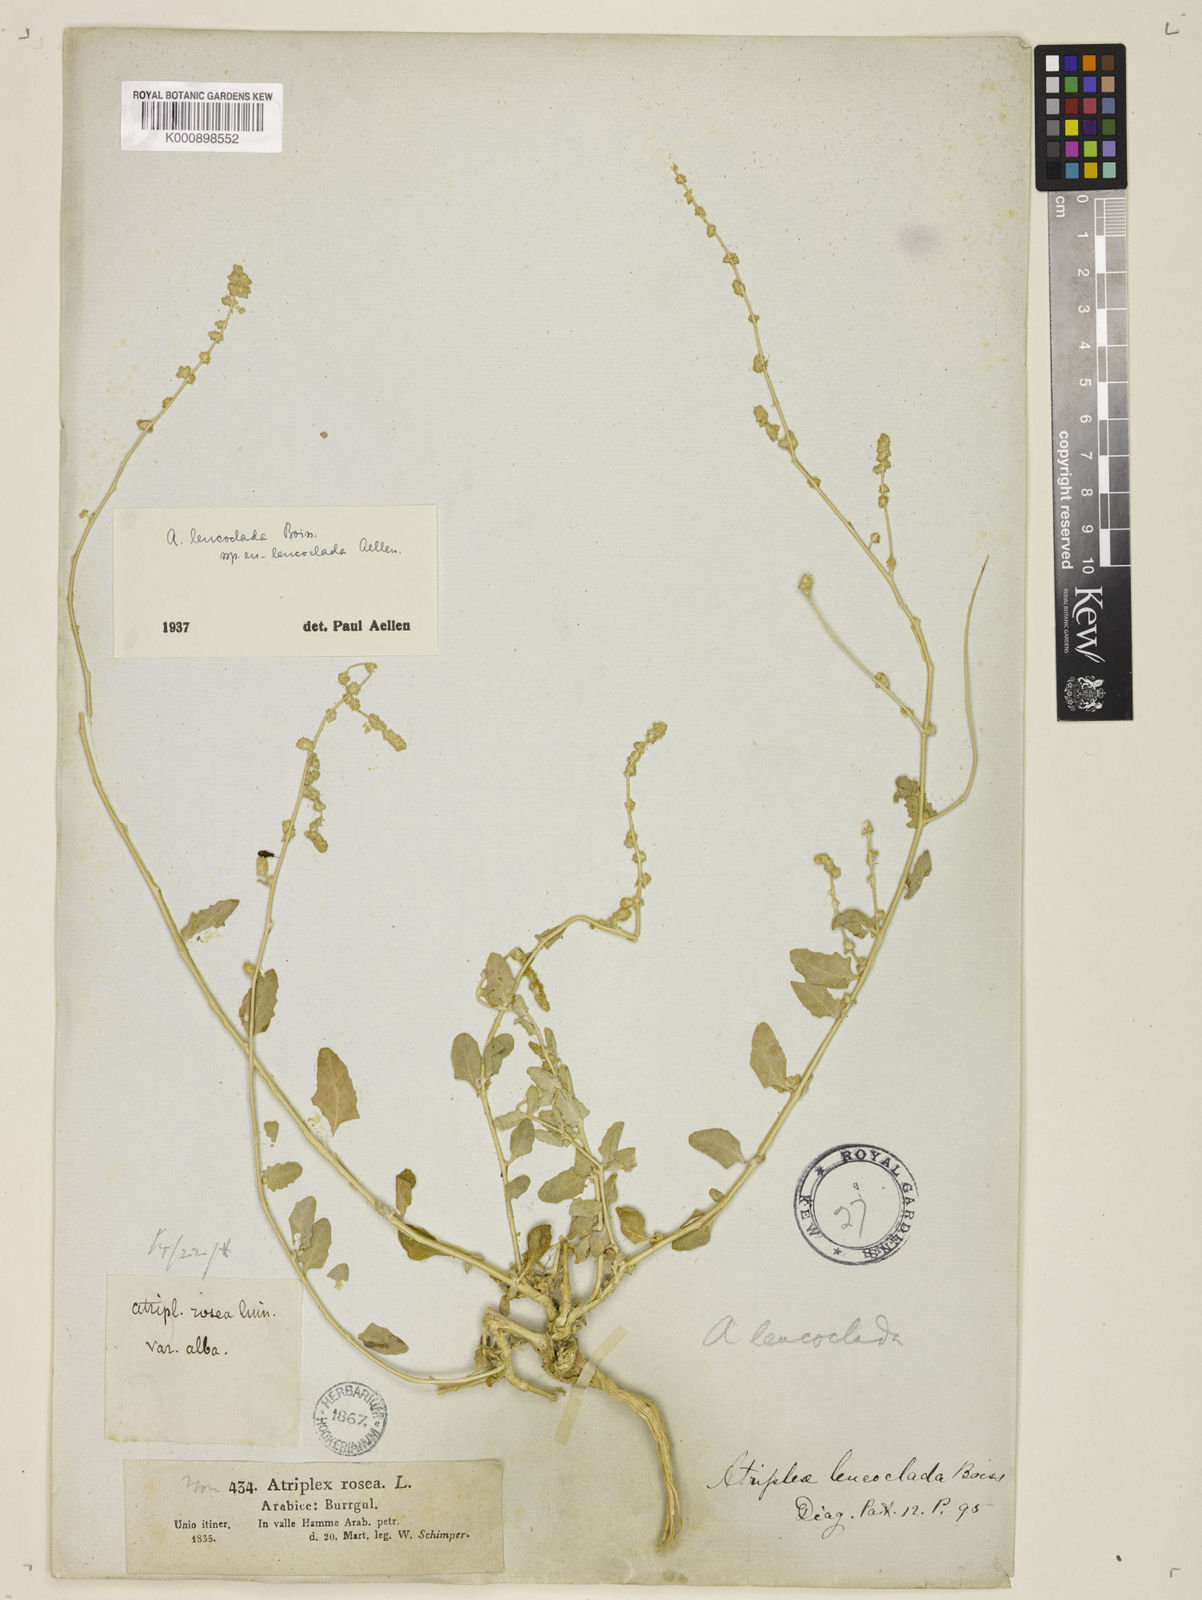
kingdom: Plantae
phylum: Tracheophyta
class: Magnoliopsida
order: Caryophyllales
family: Amaranthaceae
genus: Atriplex
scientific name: Atriplex turcomanica
